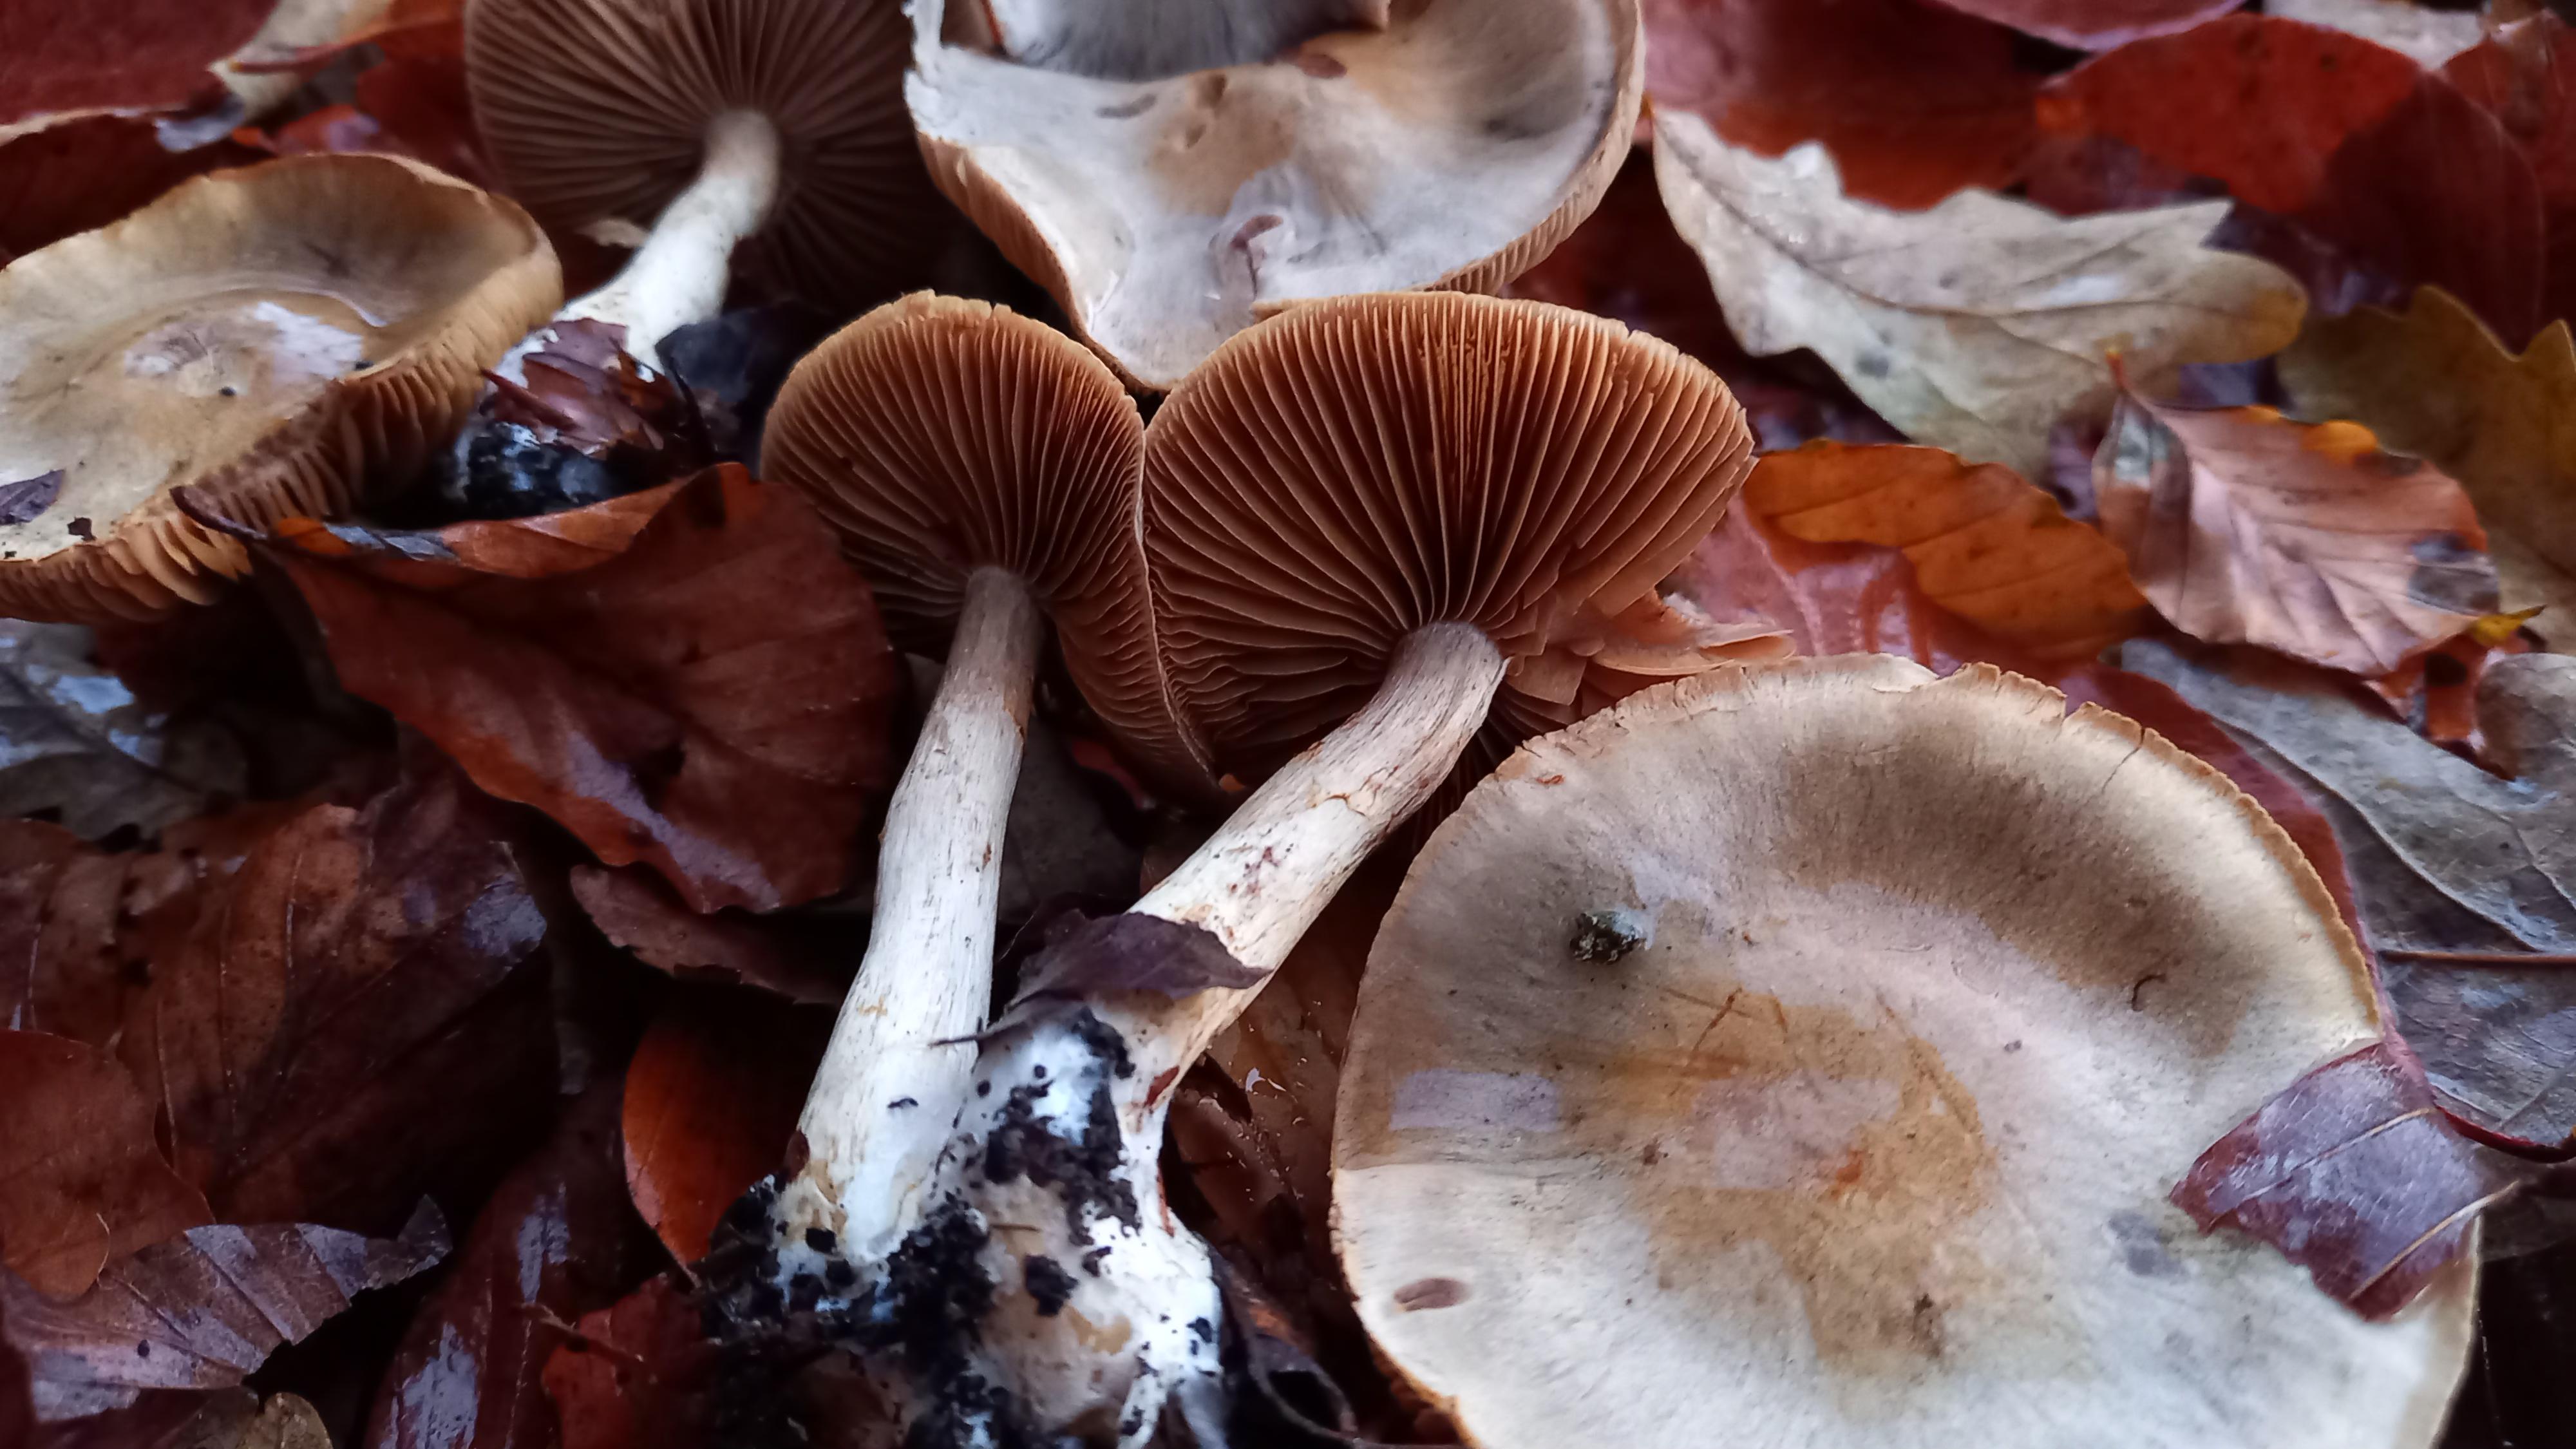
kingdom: Fungi
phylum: Basidiomycota
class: Agaricomycetes
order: Agaricales
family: Cortinariaceae
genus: Cortinarius
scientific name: Cortinarius
